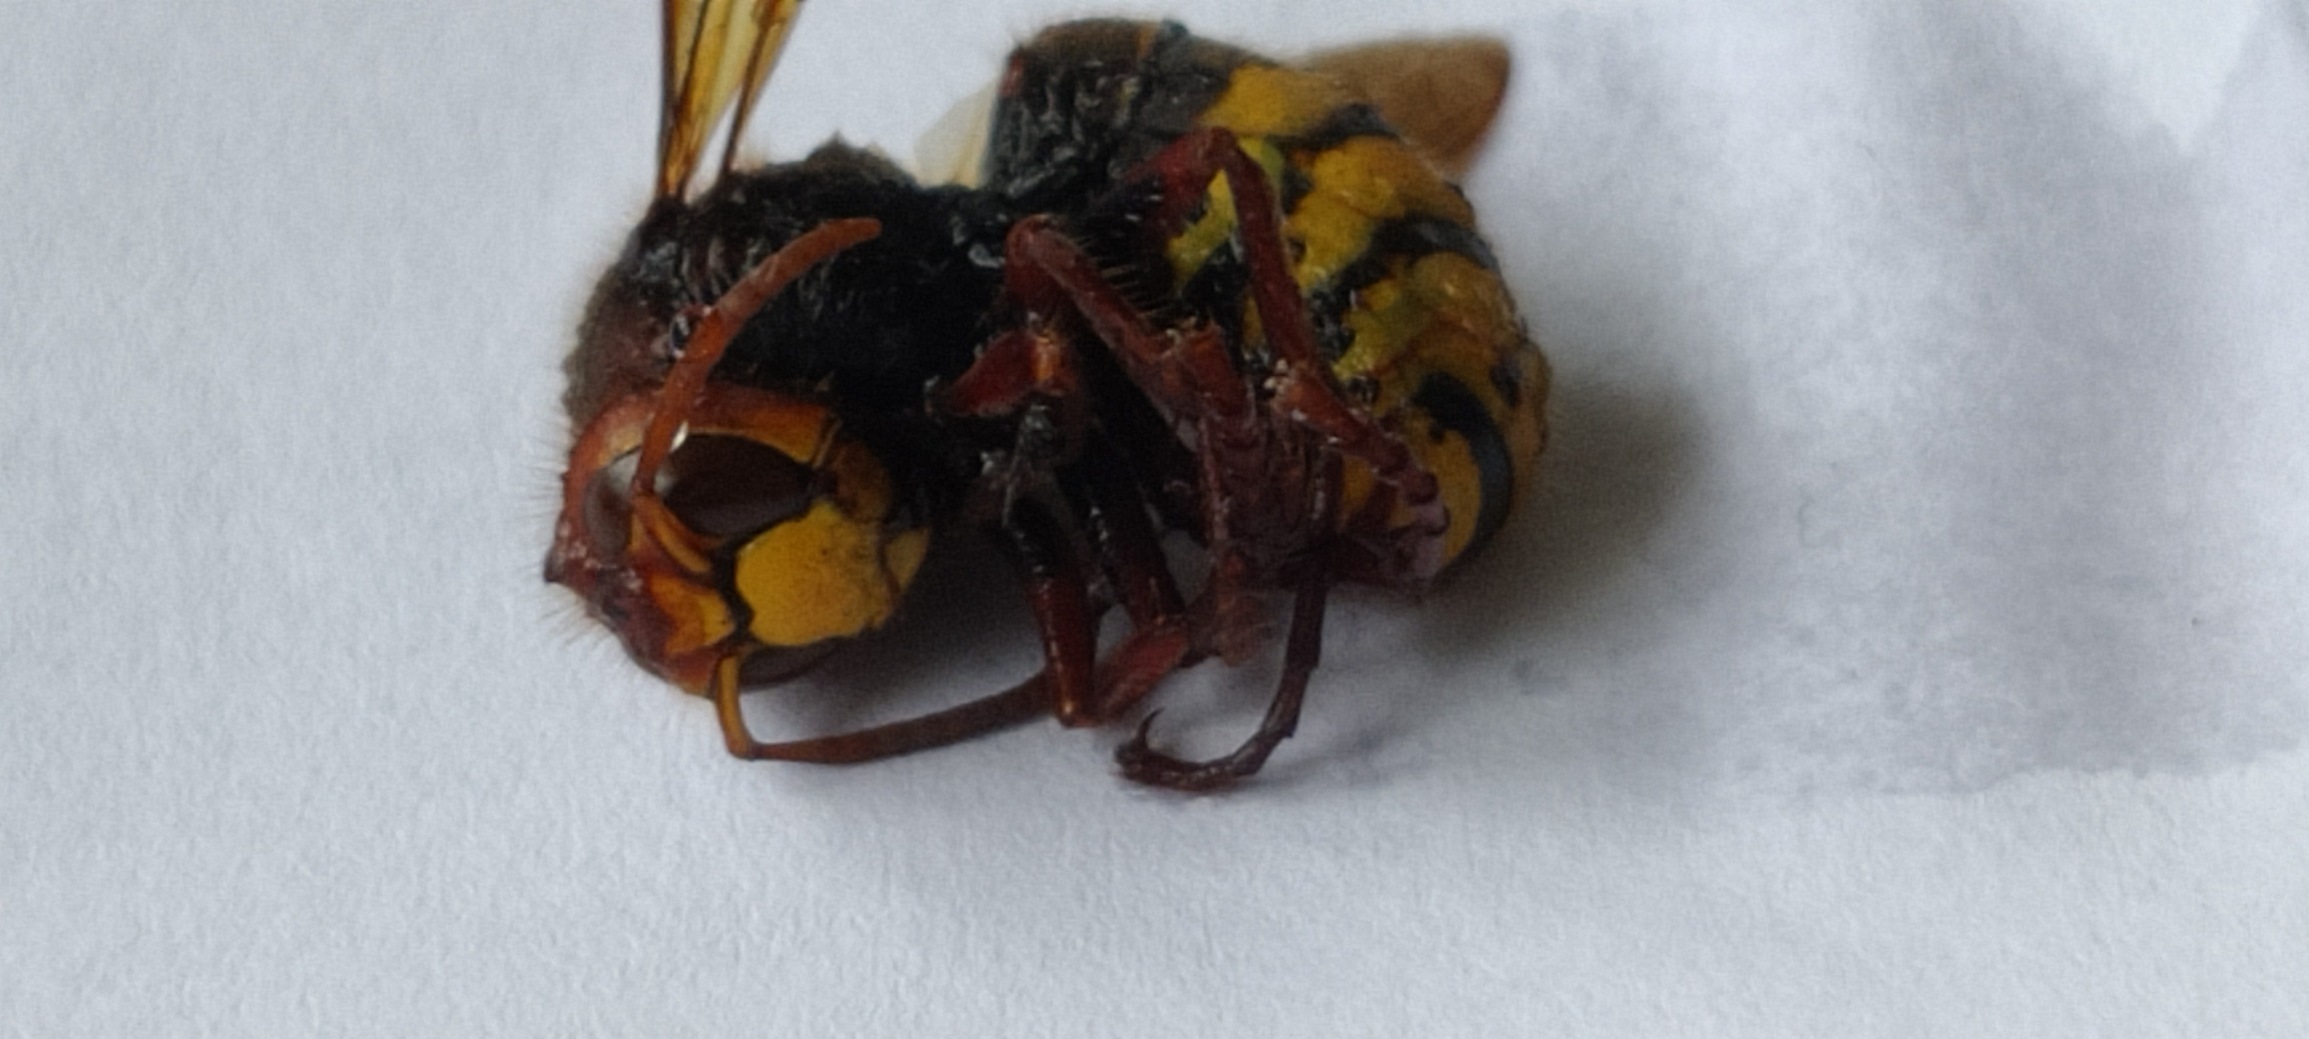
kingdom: Animalia
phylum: Arthropoda
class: Insecta
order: Hymenoptera
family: Vespidae
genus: Vespa
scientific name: Vespa crabro
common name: Stor gedehams
